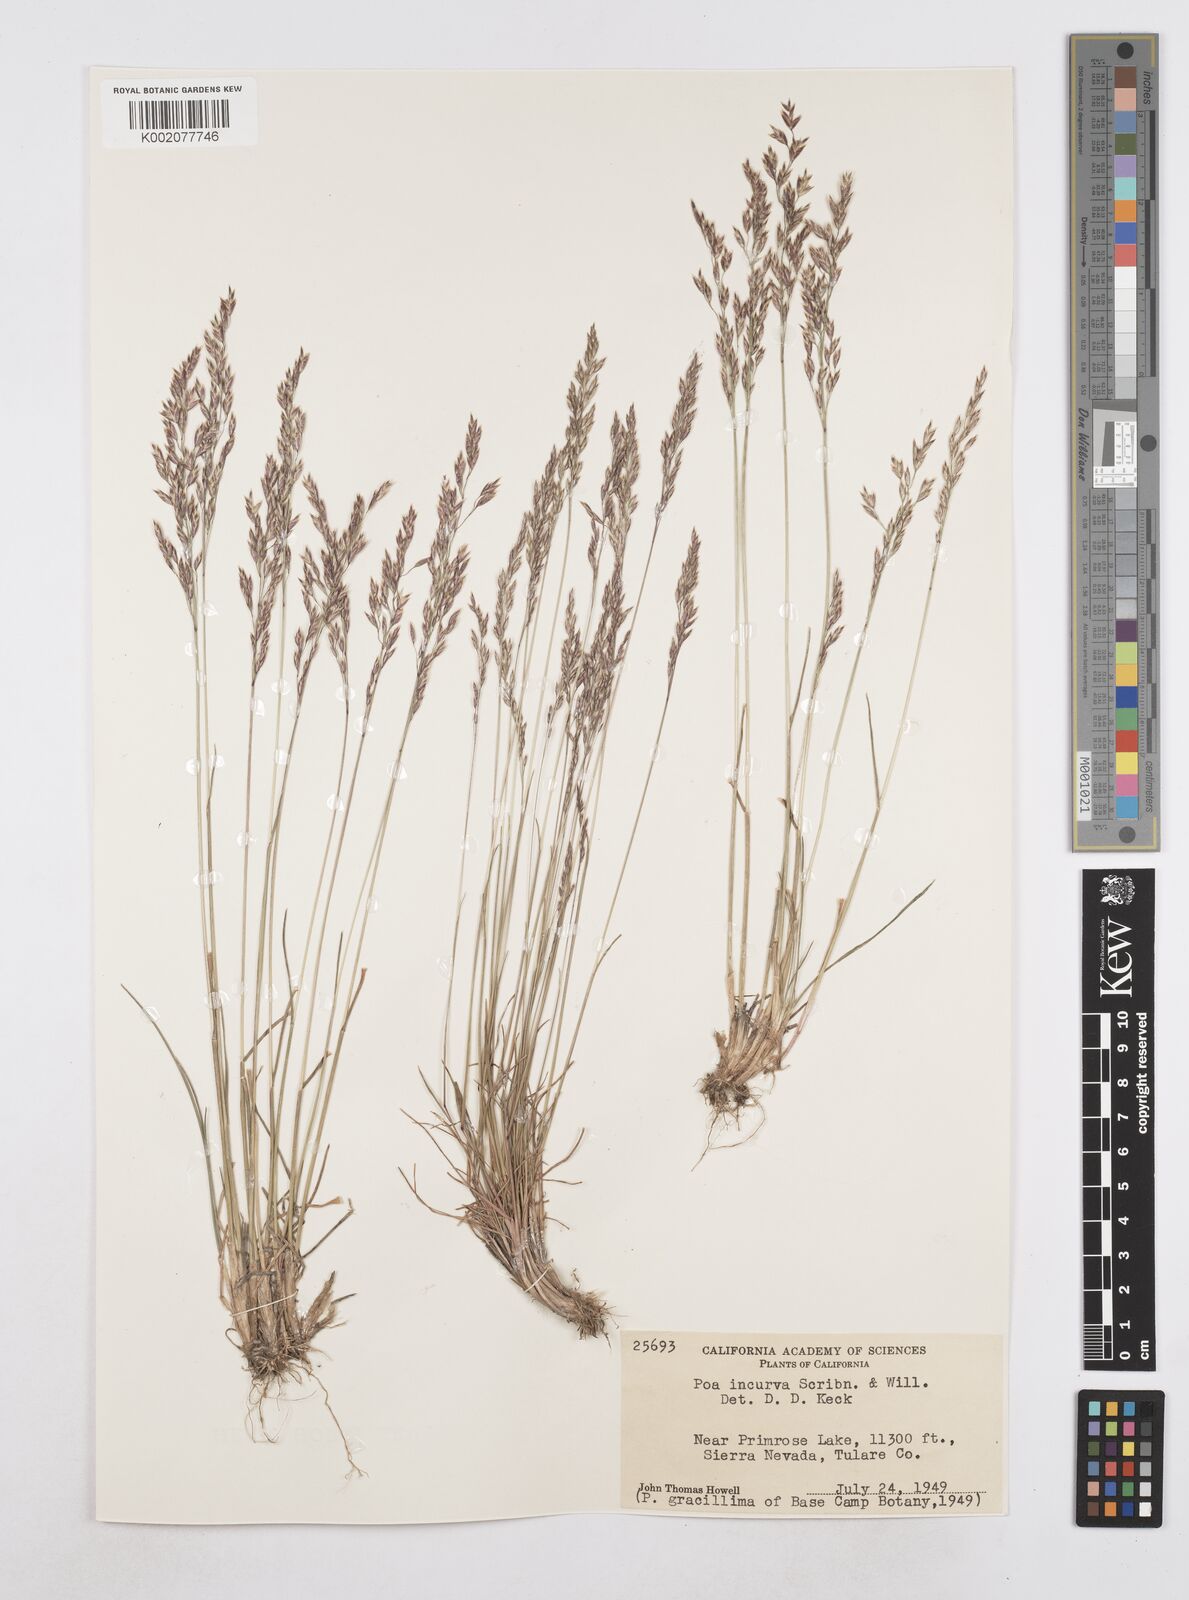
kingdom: Plantae
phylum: Tracheophyta
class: Liliopsida
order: Poales
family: Poaceae
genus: Poa
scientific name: Poa secunda
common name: Sandberg bluegrass
